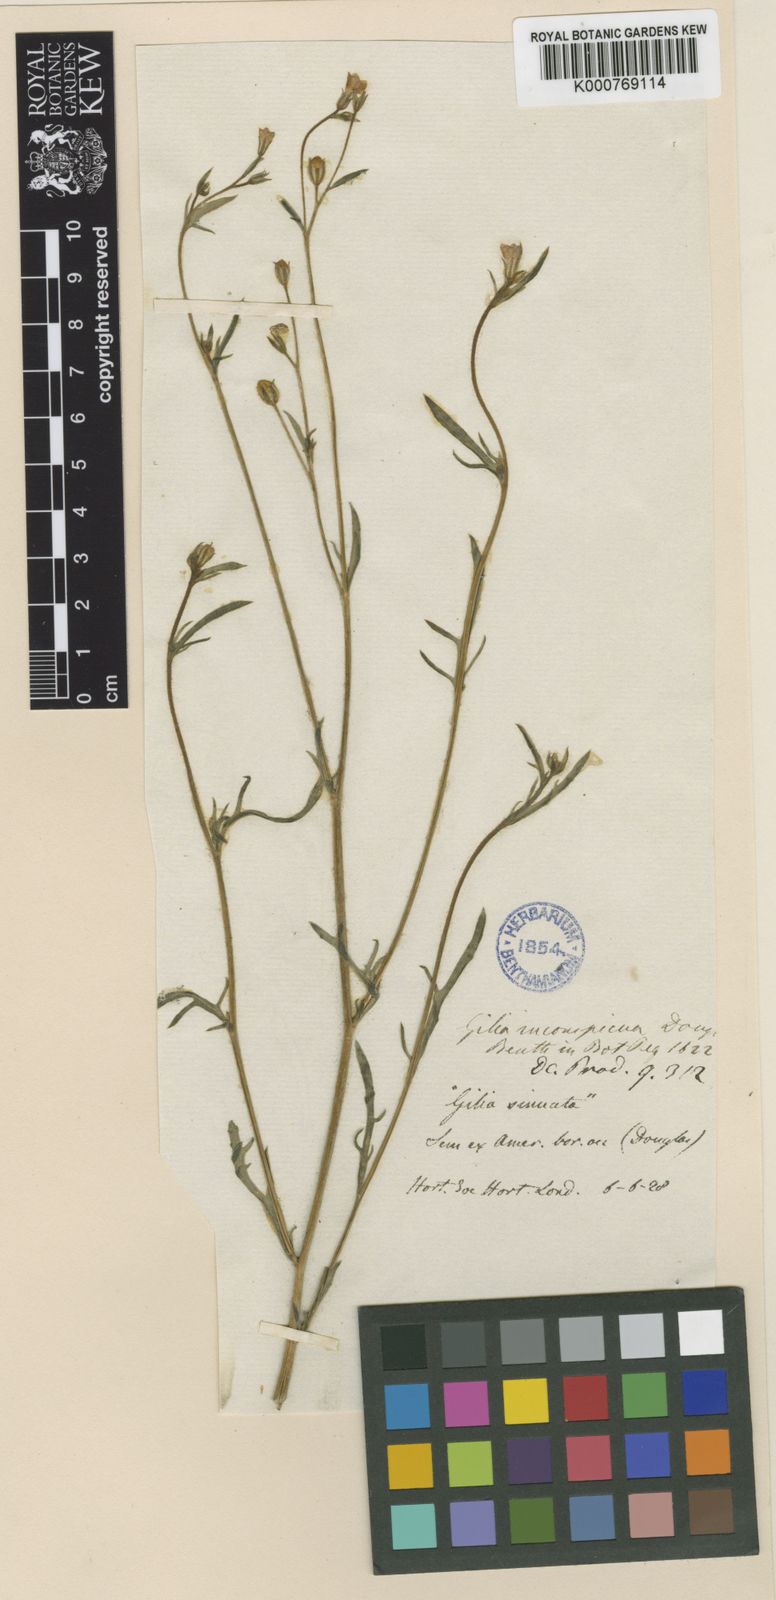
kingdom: Plantae
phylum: Tracheophyta
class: Magnoliopsida
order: Ericales
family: Polemoniaceae
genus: Gilia
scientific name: Gilia inconspicua
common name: Shy gilia
